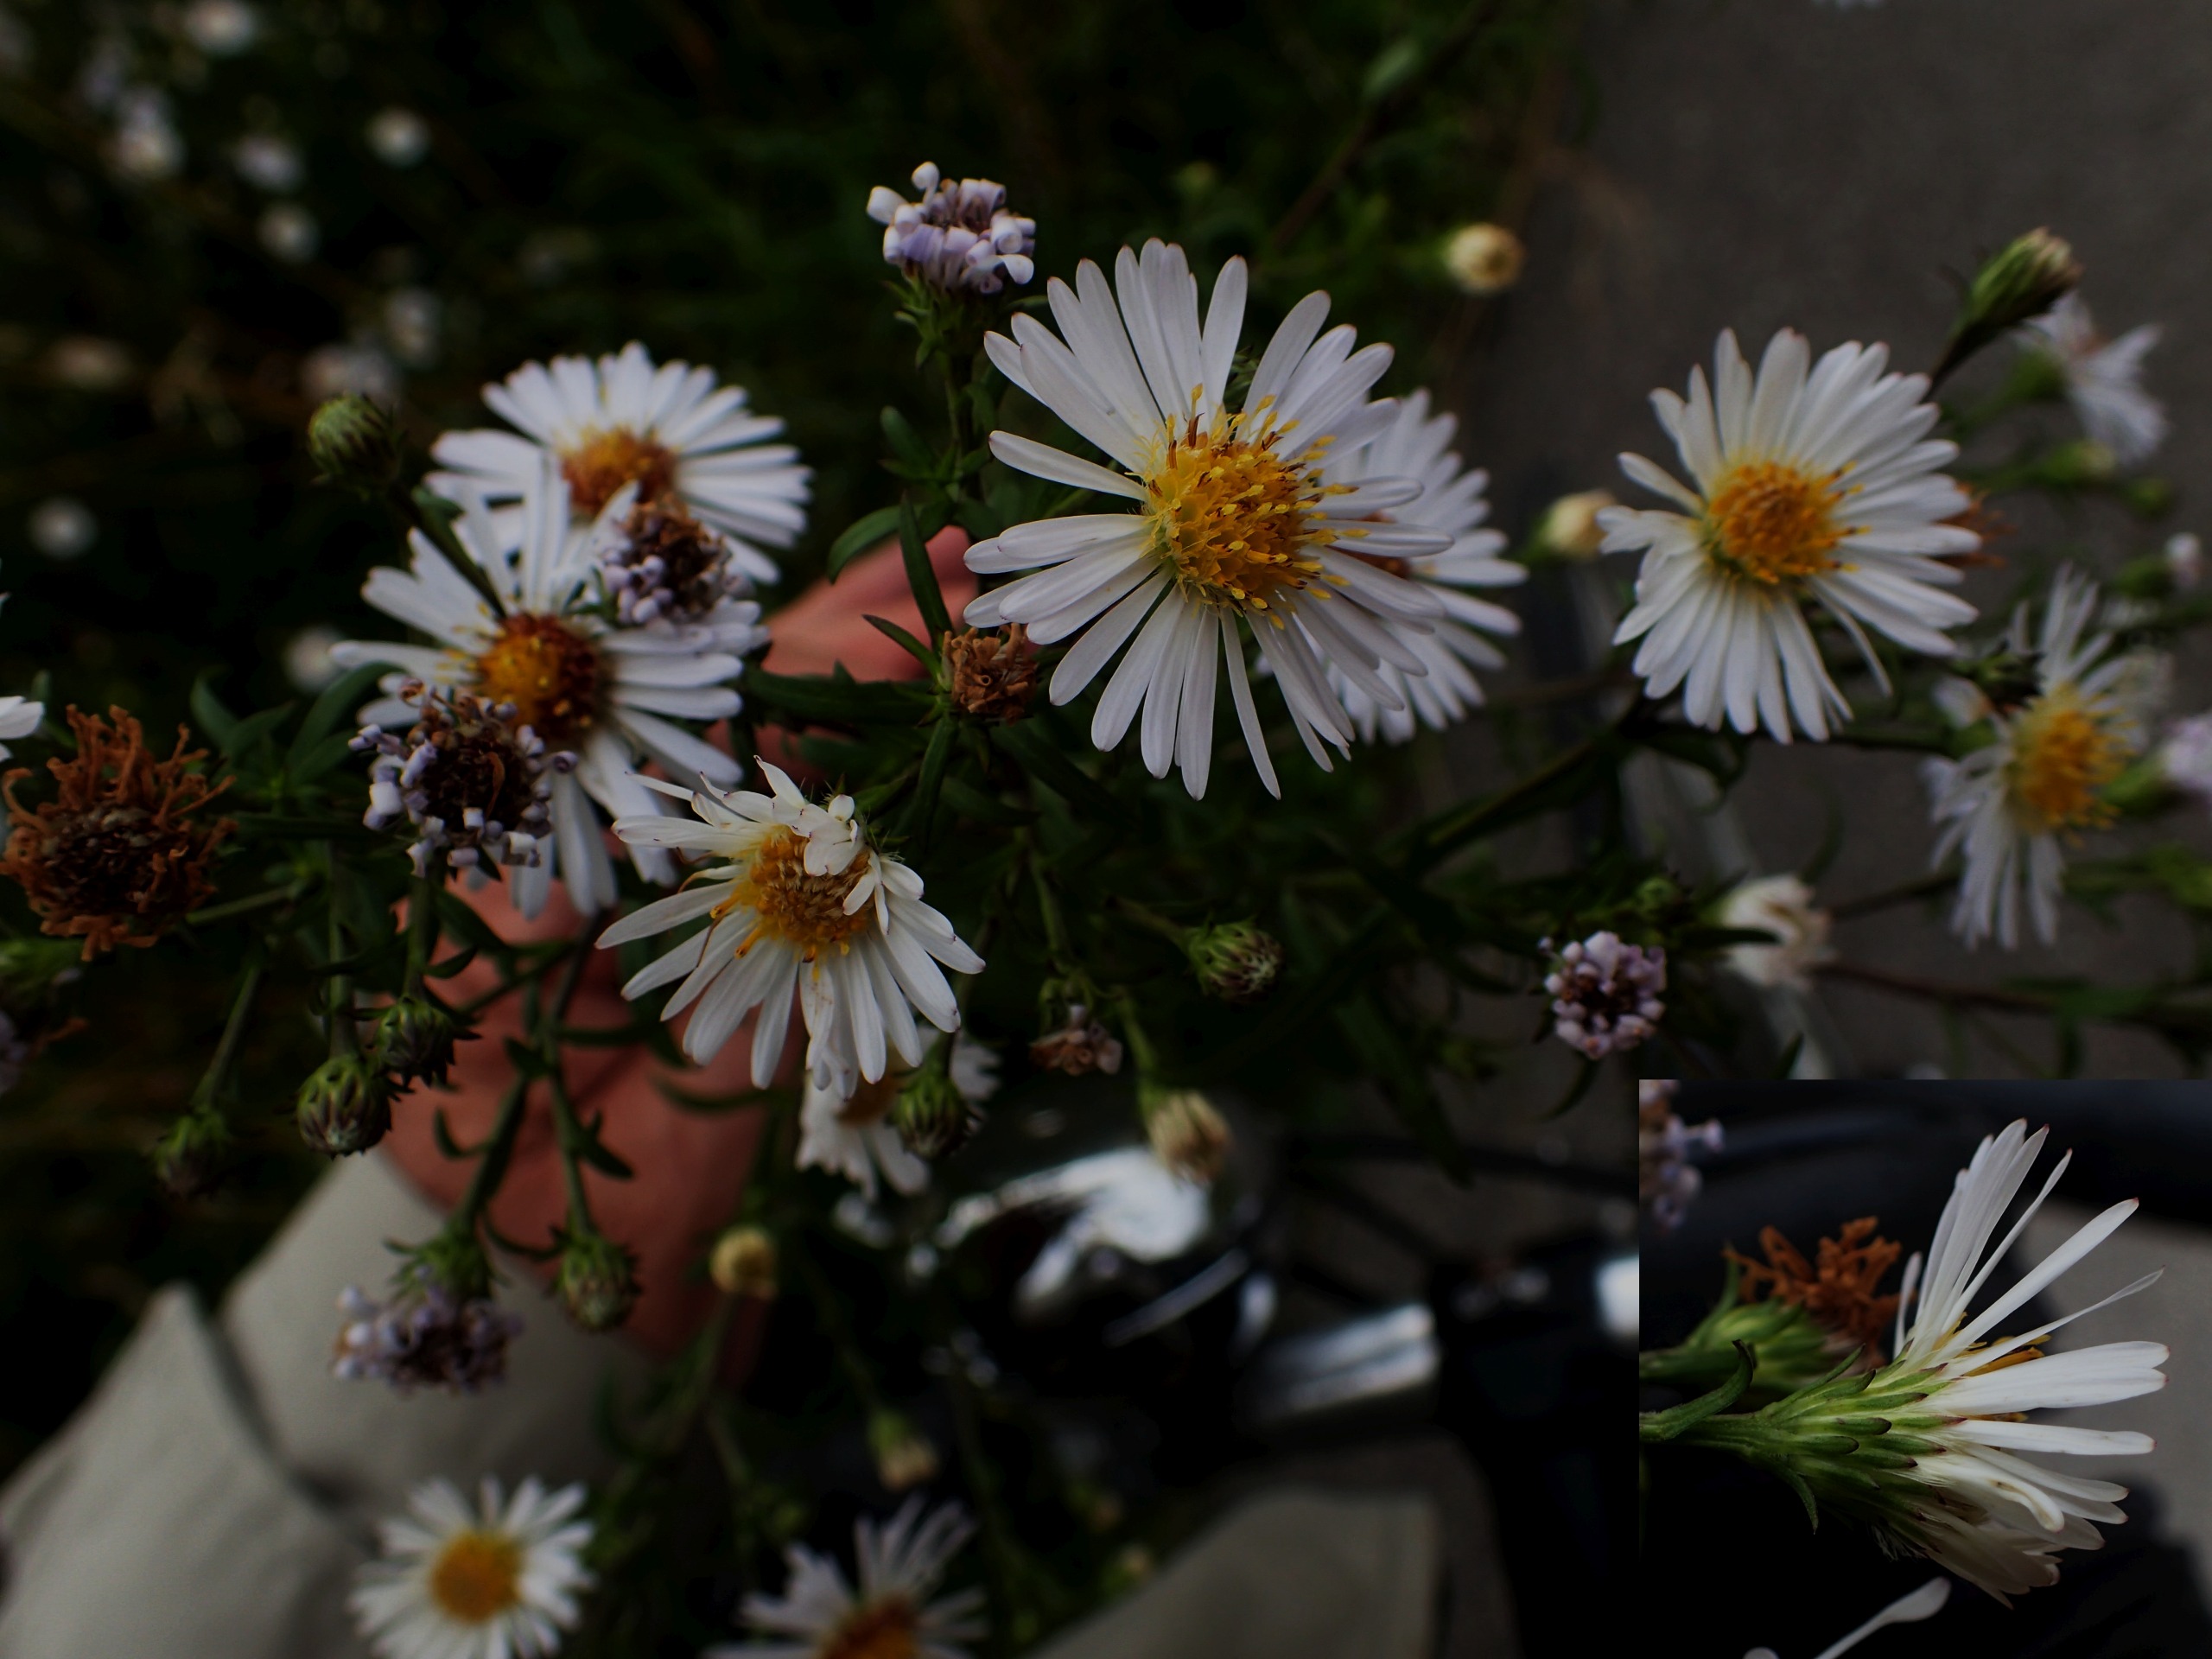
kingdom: Plantae
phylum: Tracheophyta
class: Magnoliopsida
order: Asterales
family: Asteraceae
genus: Symphyotrichum
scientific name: Symphyotrichum lanceolatum
